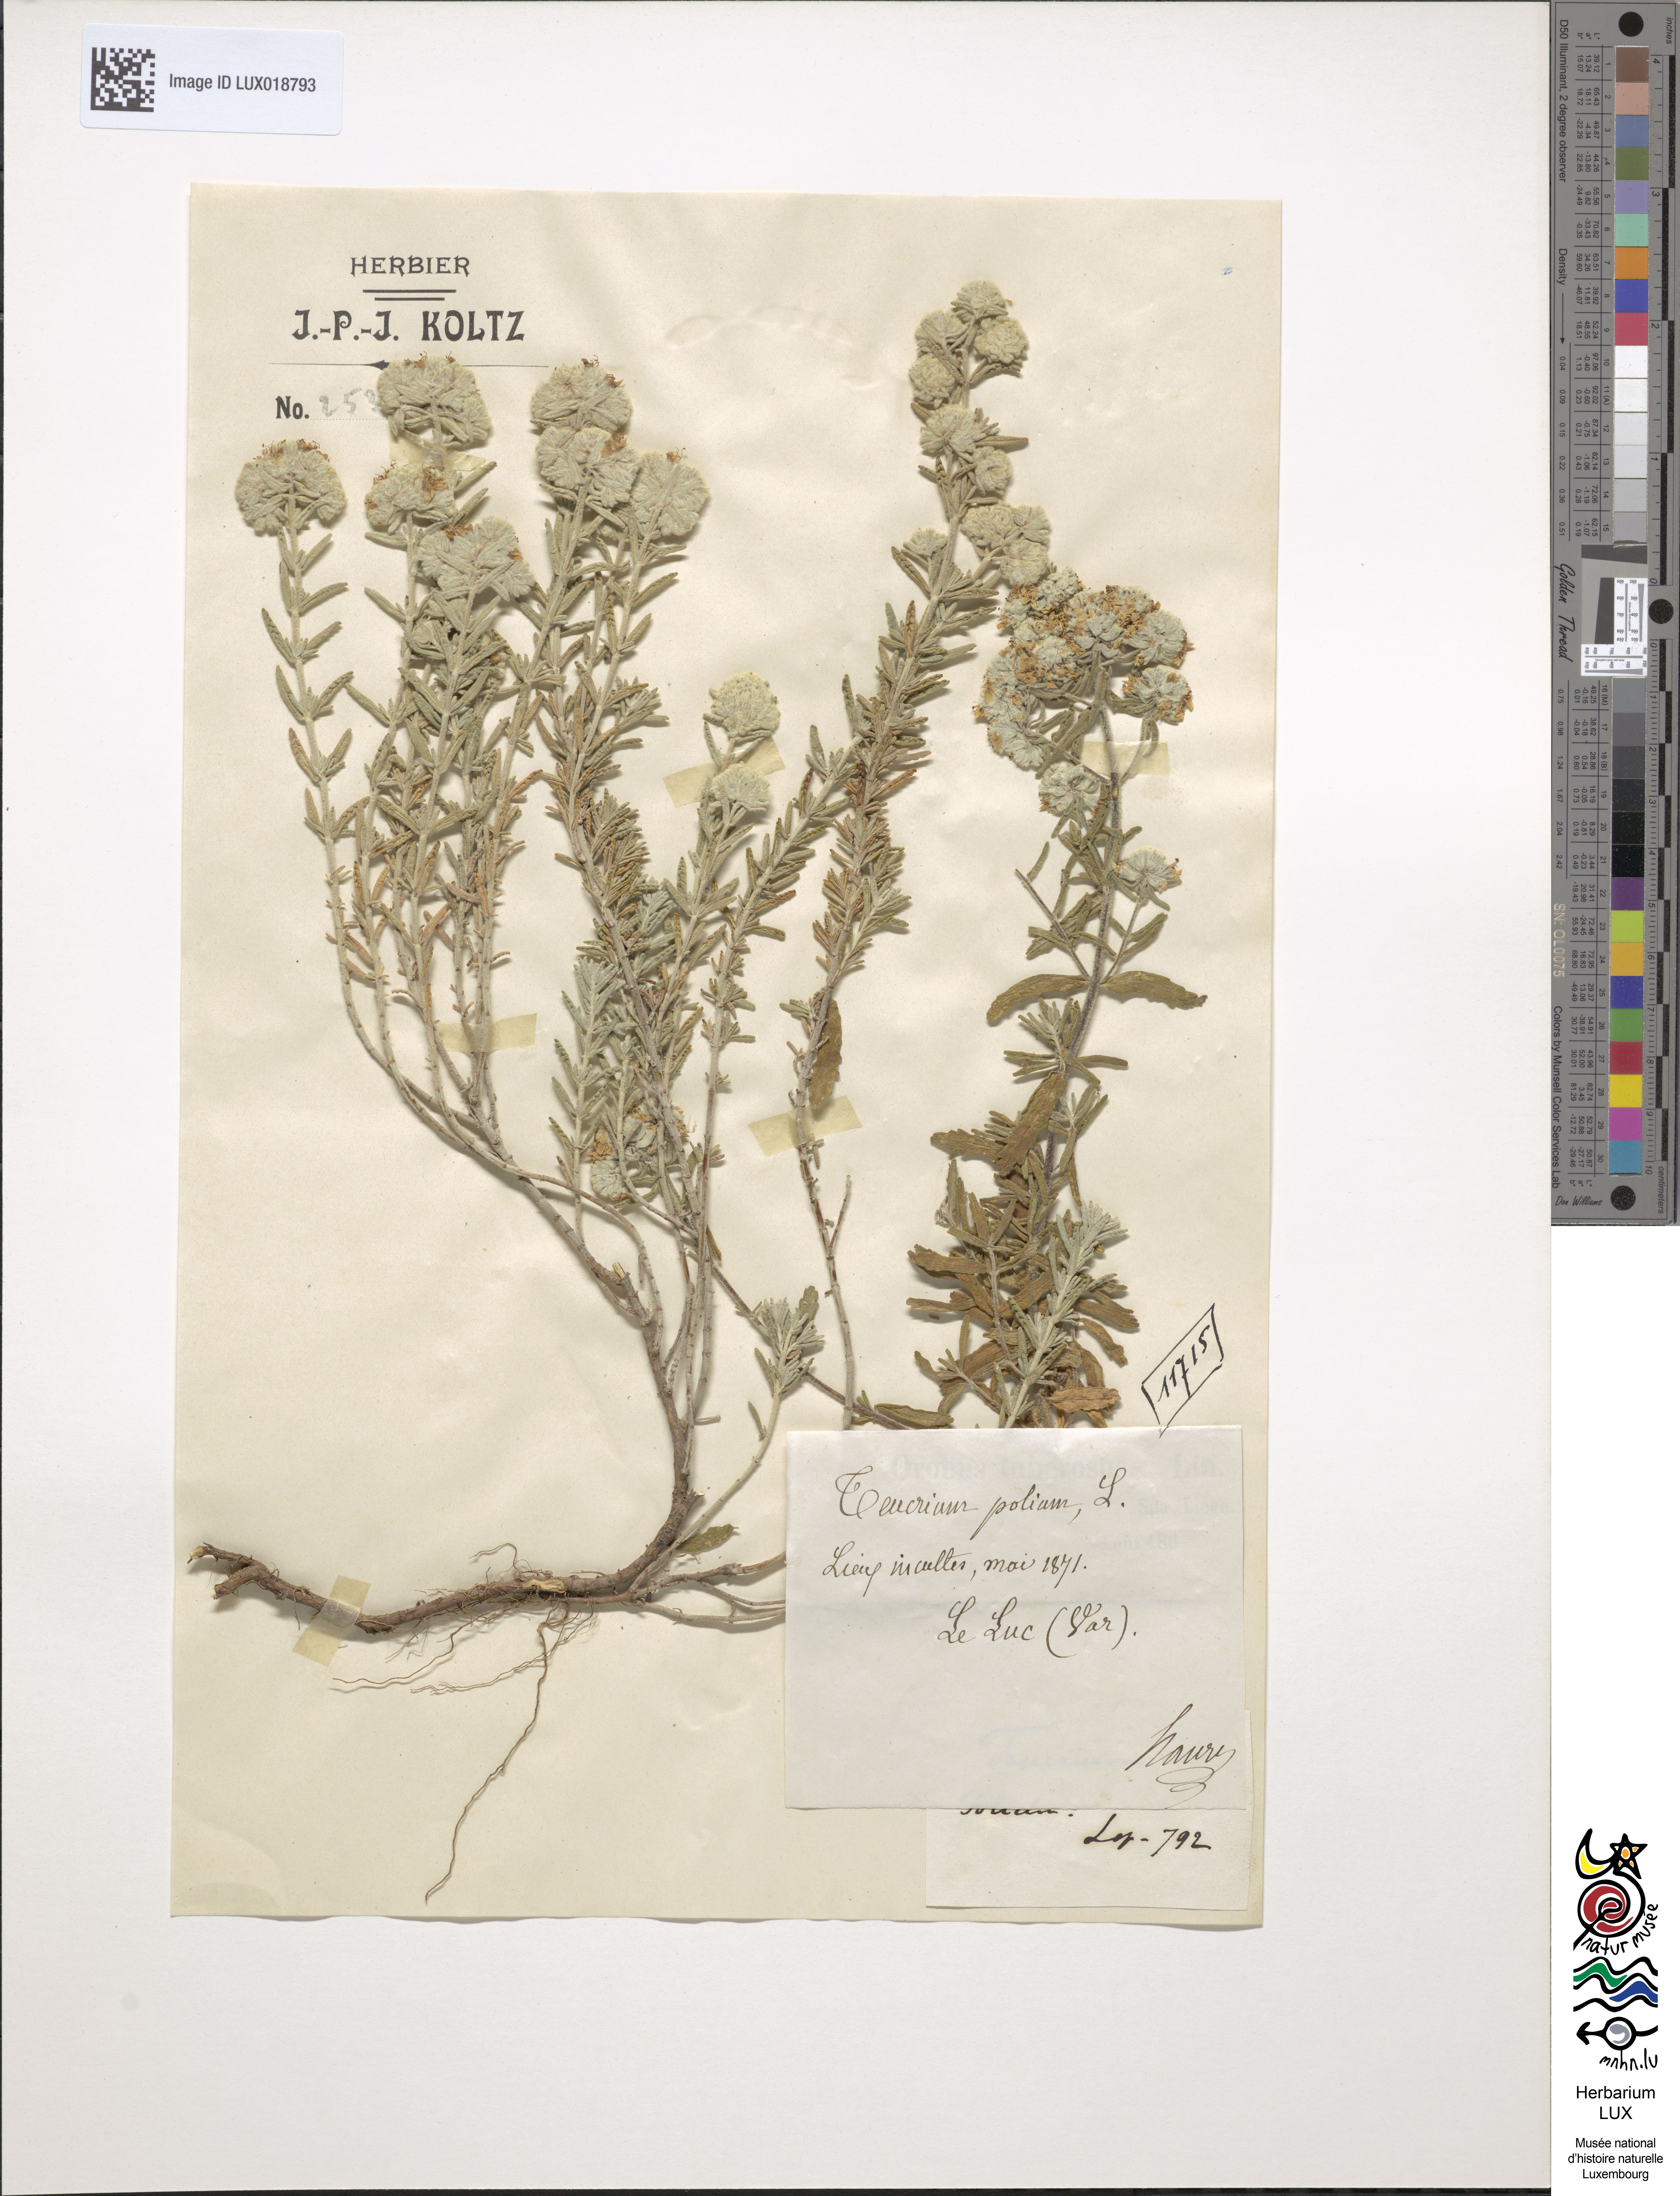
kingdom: Plantae
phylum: Tracheophyta
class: Magnoliopsida
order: Lamiales
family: Lamiaceae
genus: Teucrium
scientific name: Teucrium polium
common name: Poley
